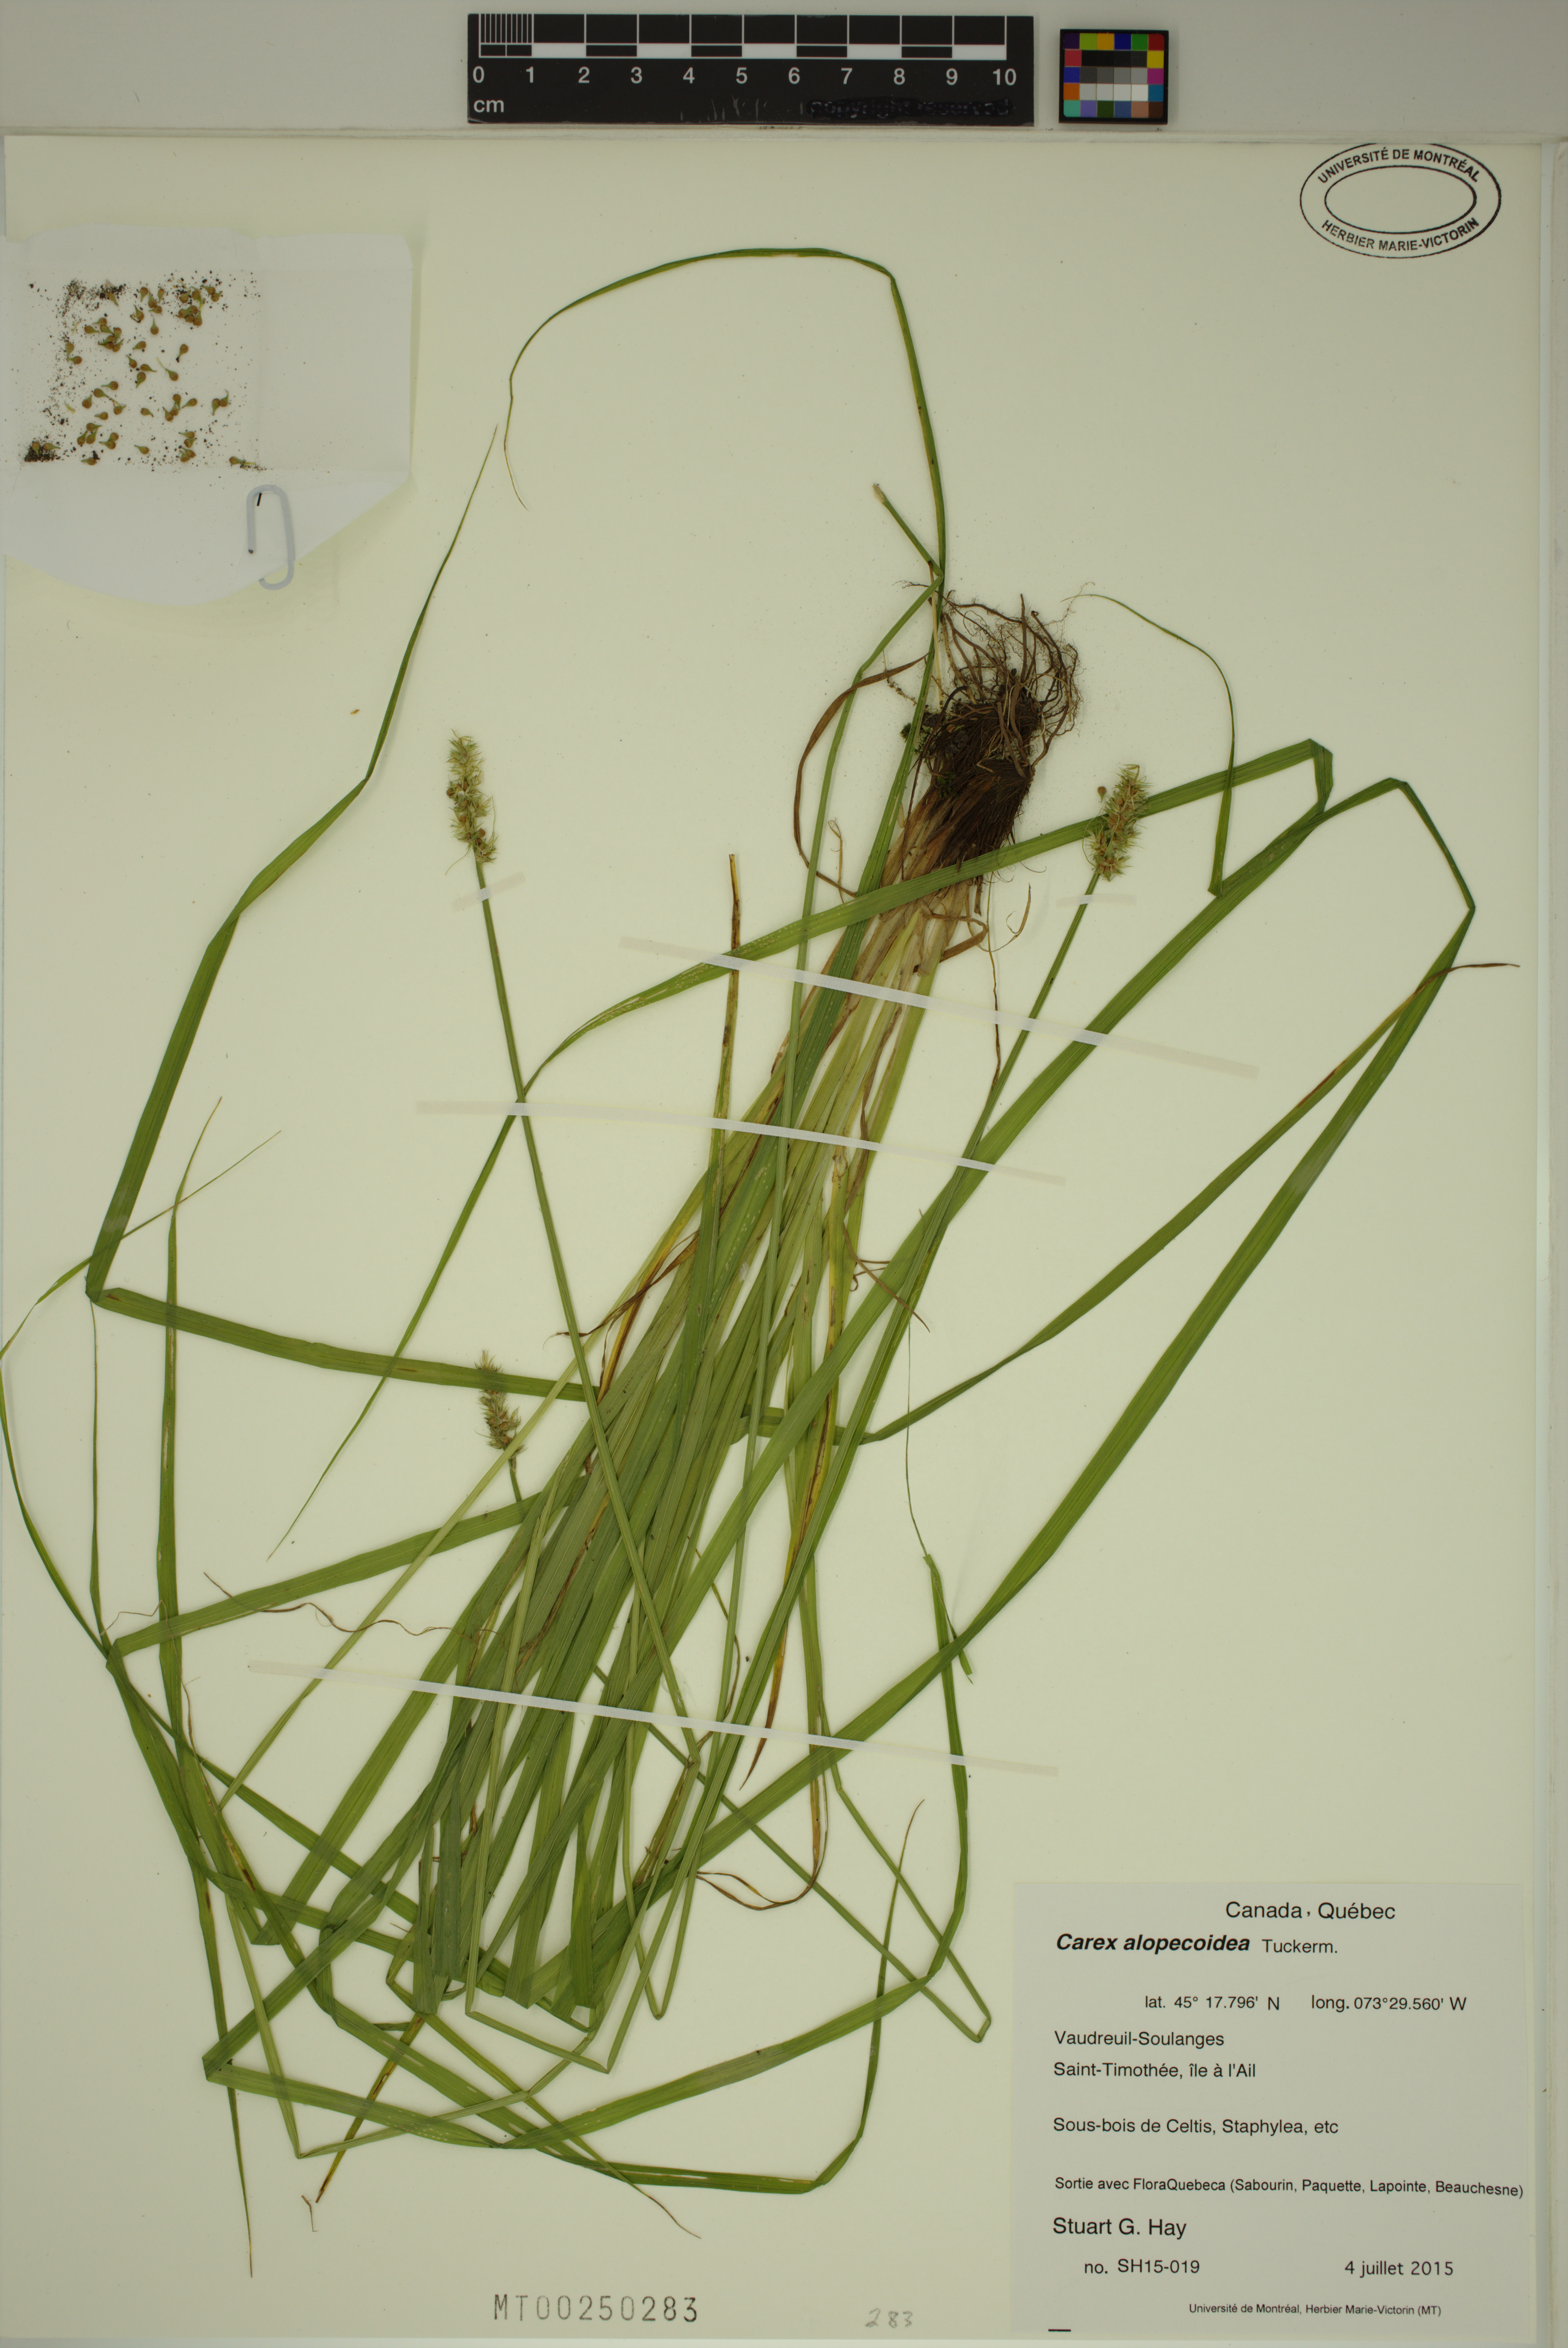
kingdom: Plantae
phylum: Tracheophyta
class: Liliopsida
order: Poales
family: Cyperaceae
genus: Carex
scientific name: Carex alopecoidea
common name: Brown-headed fox sedge
